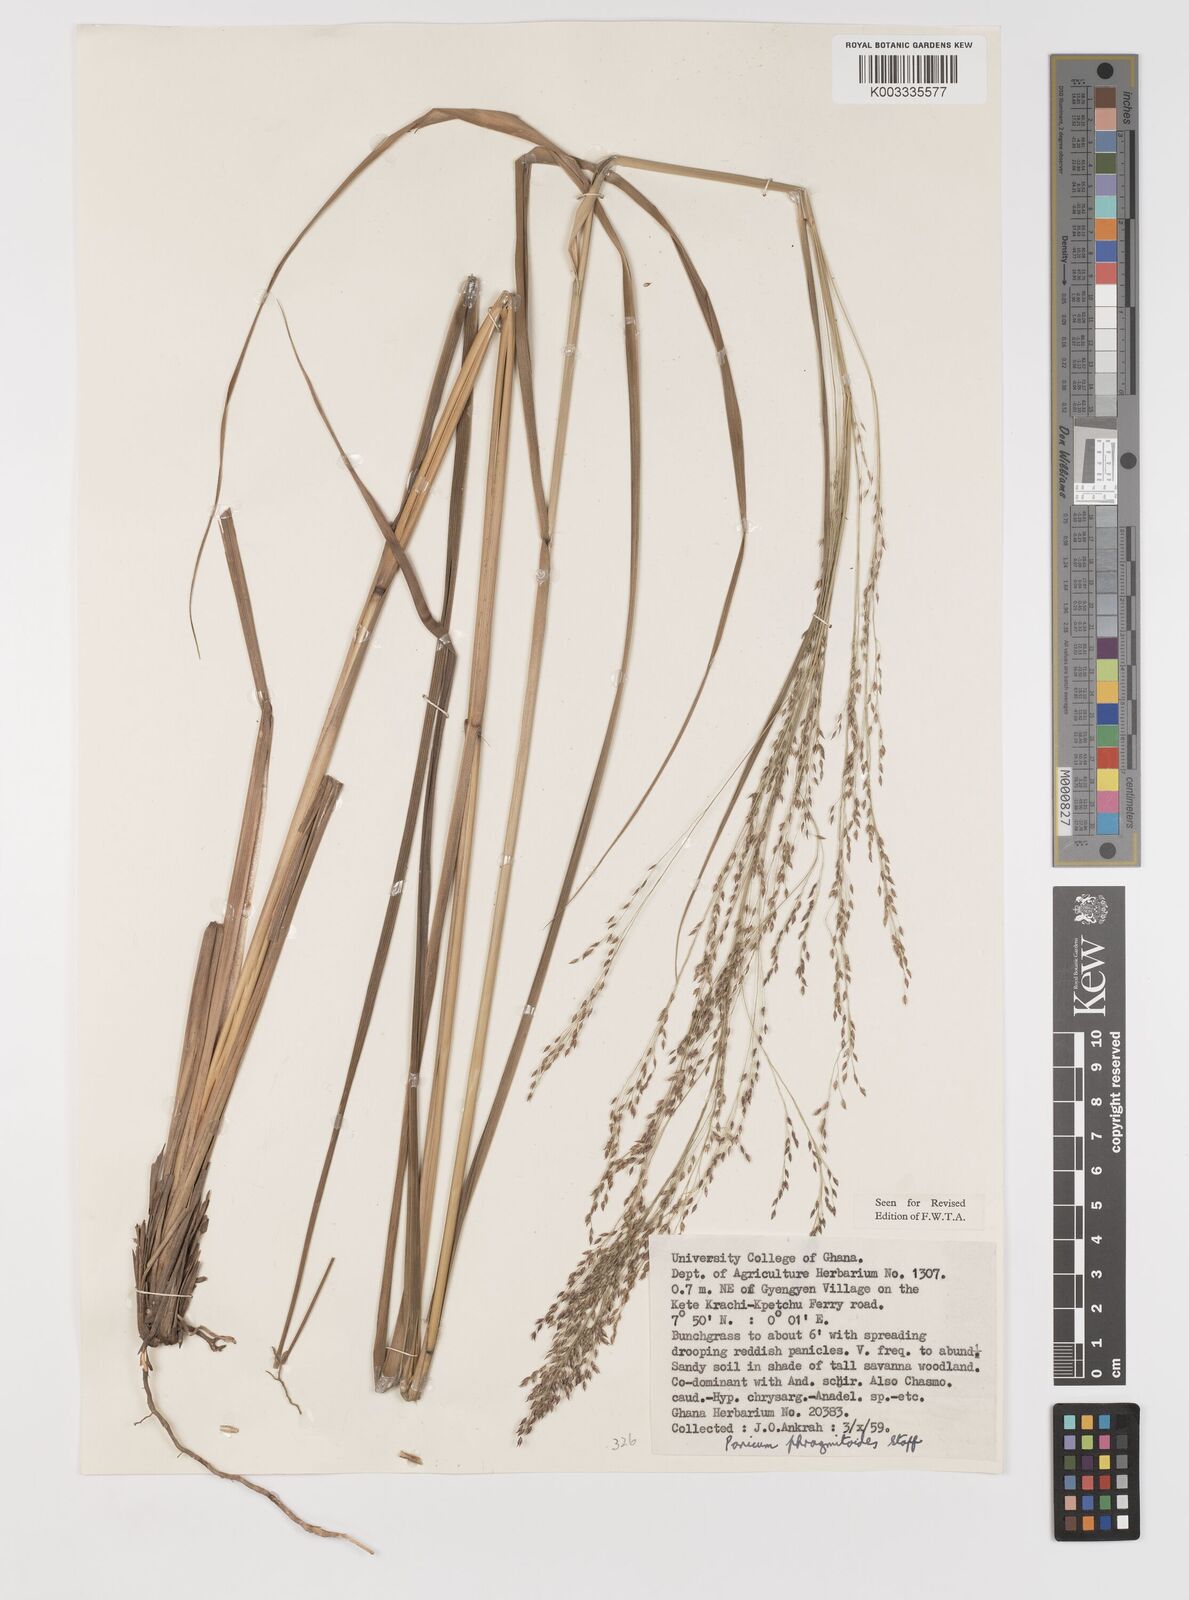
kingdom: Plantae
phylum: Tracheophyta
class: Liliopsida
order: Poales
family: Poaceae
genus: Panicum
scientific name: Panicum phragmitoides
